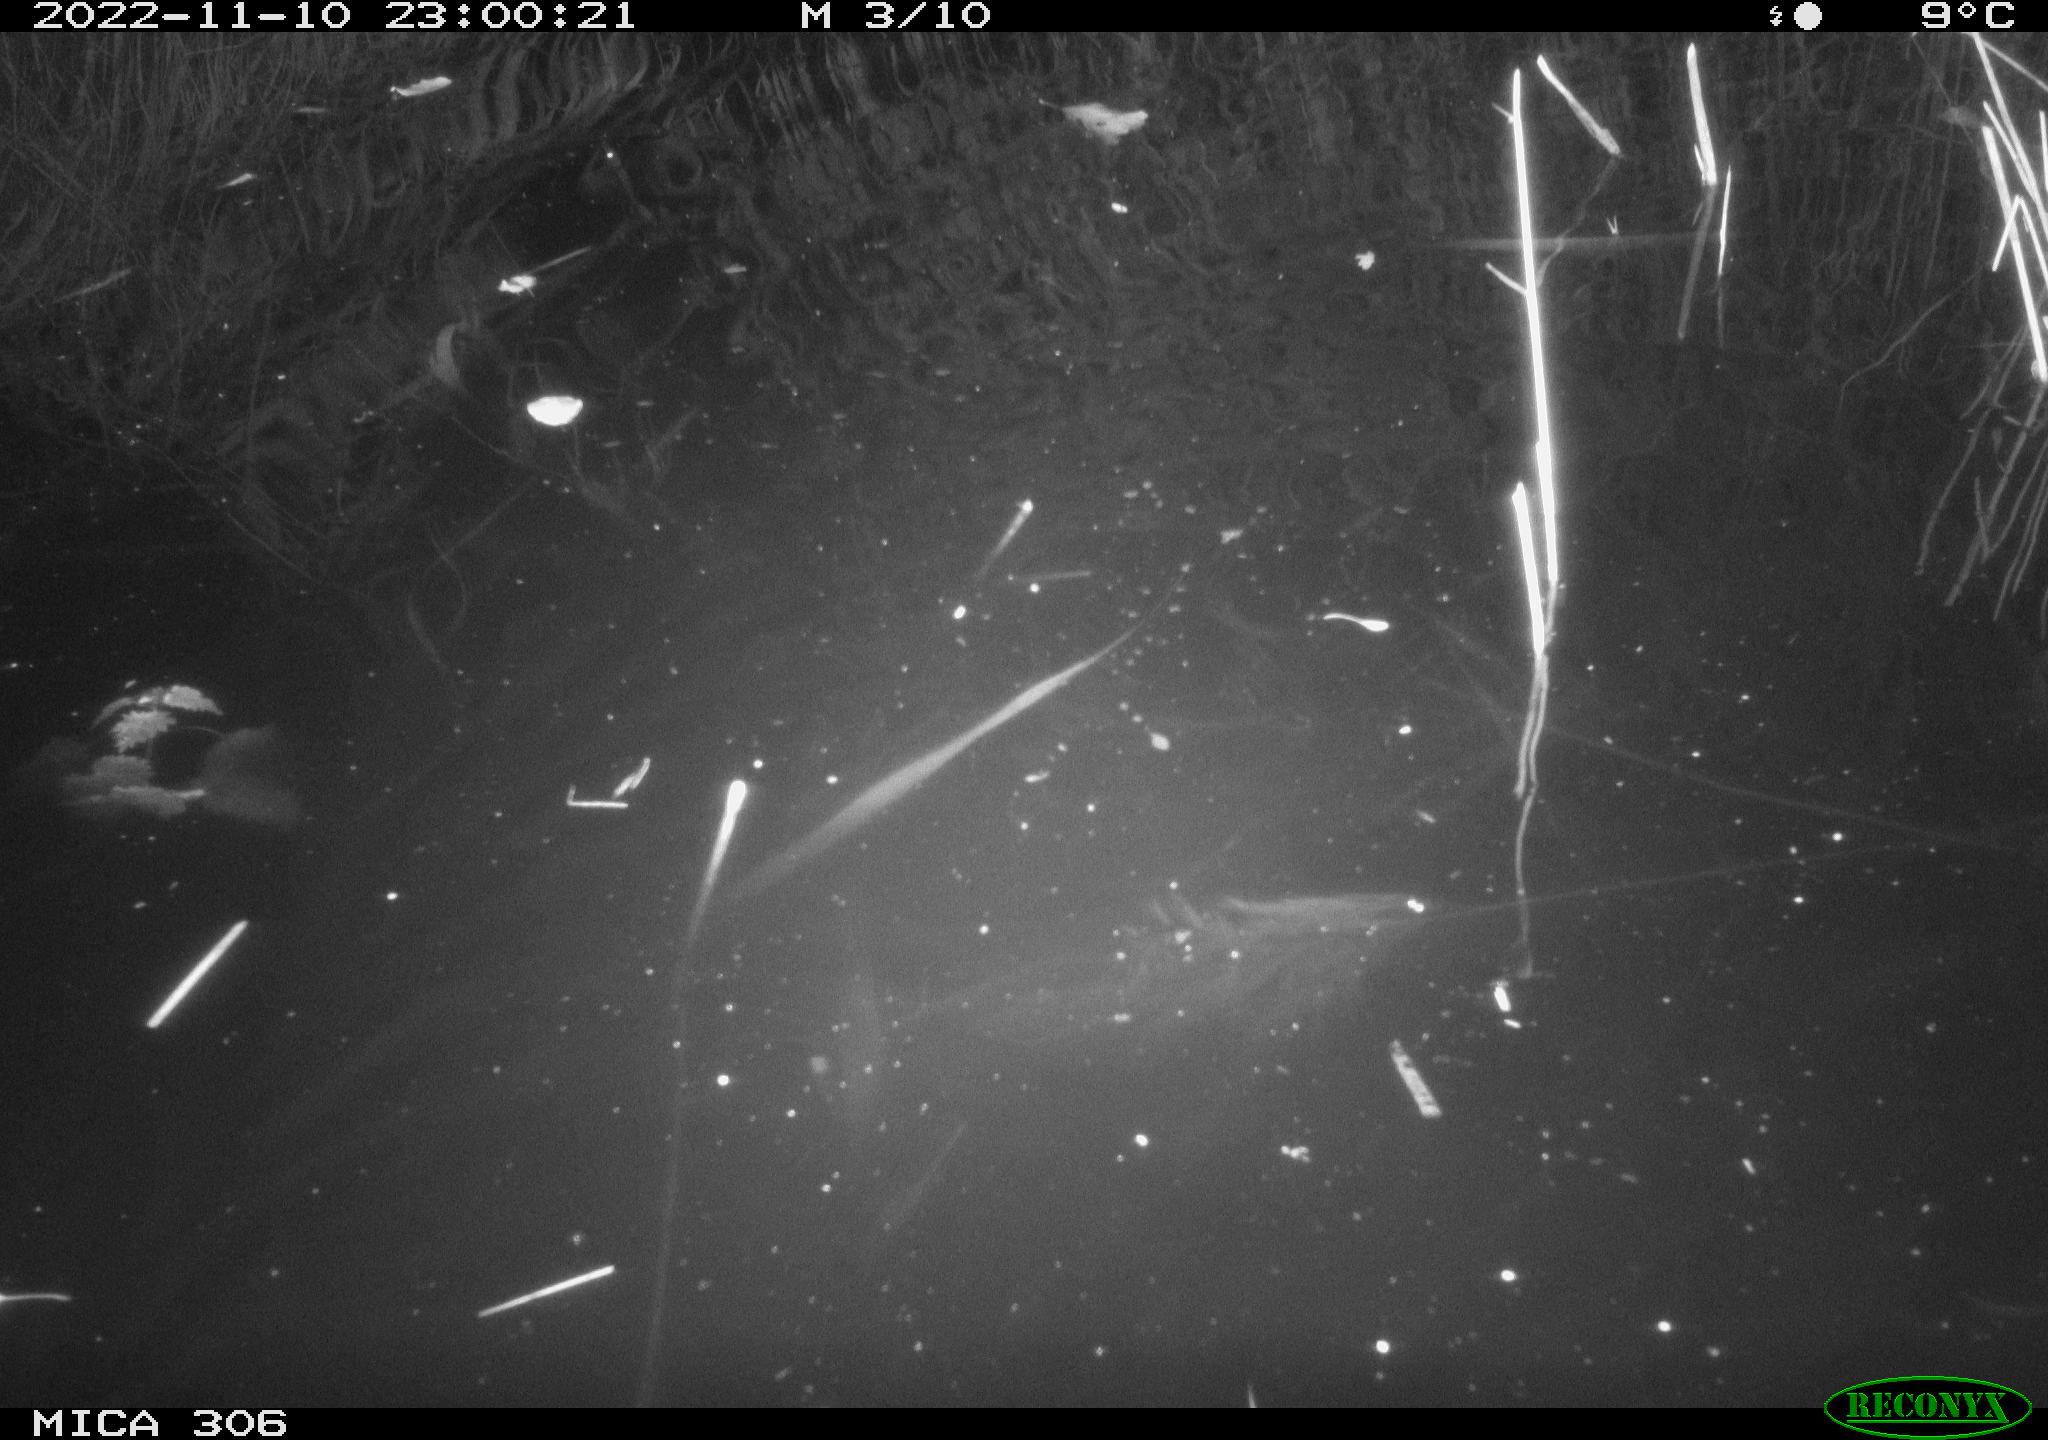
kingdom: Animalia
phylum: Chordata
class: Mammalia
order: Rodentia
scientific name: Rodentia
